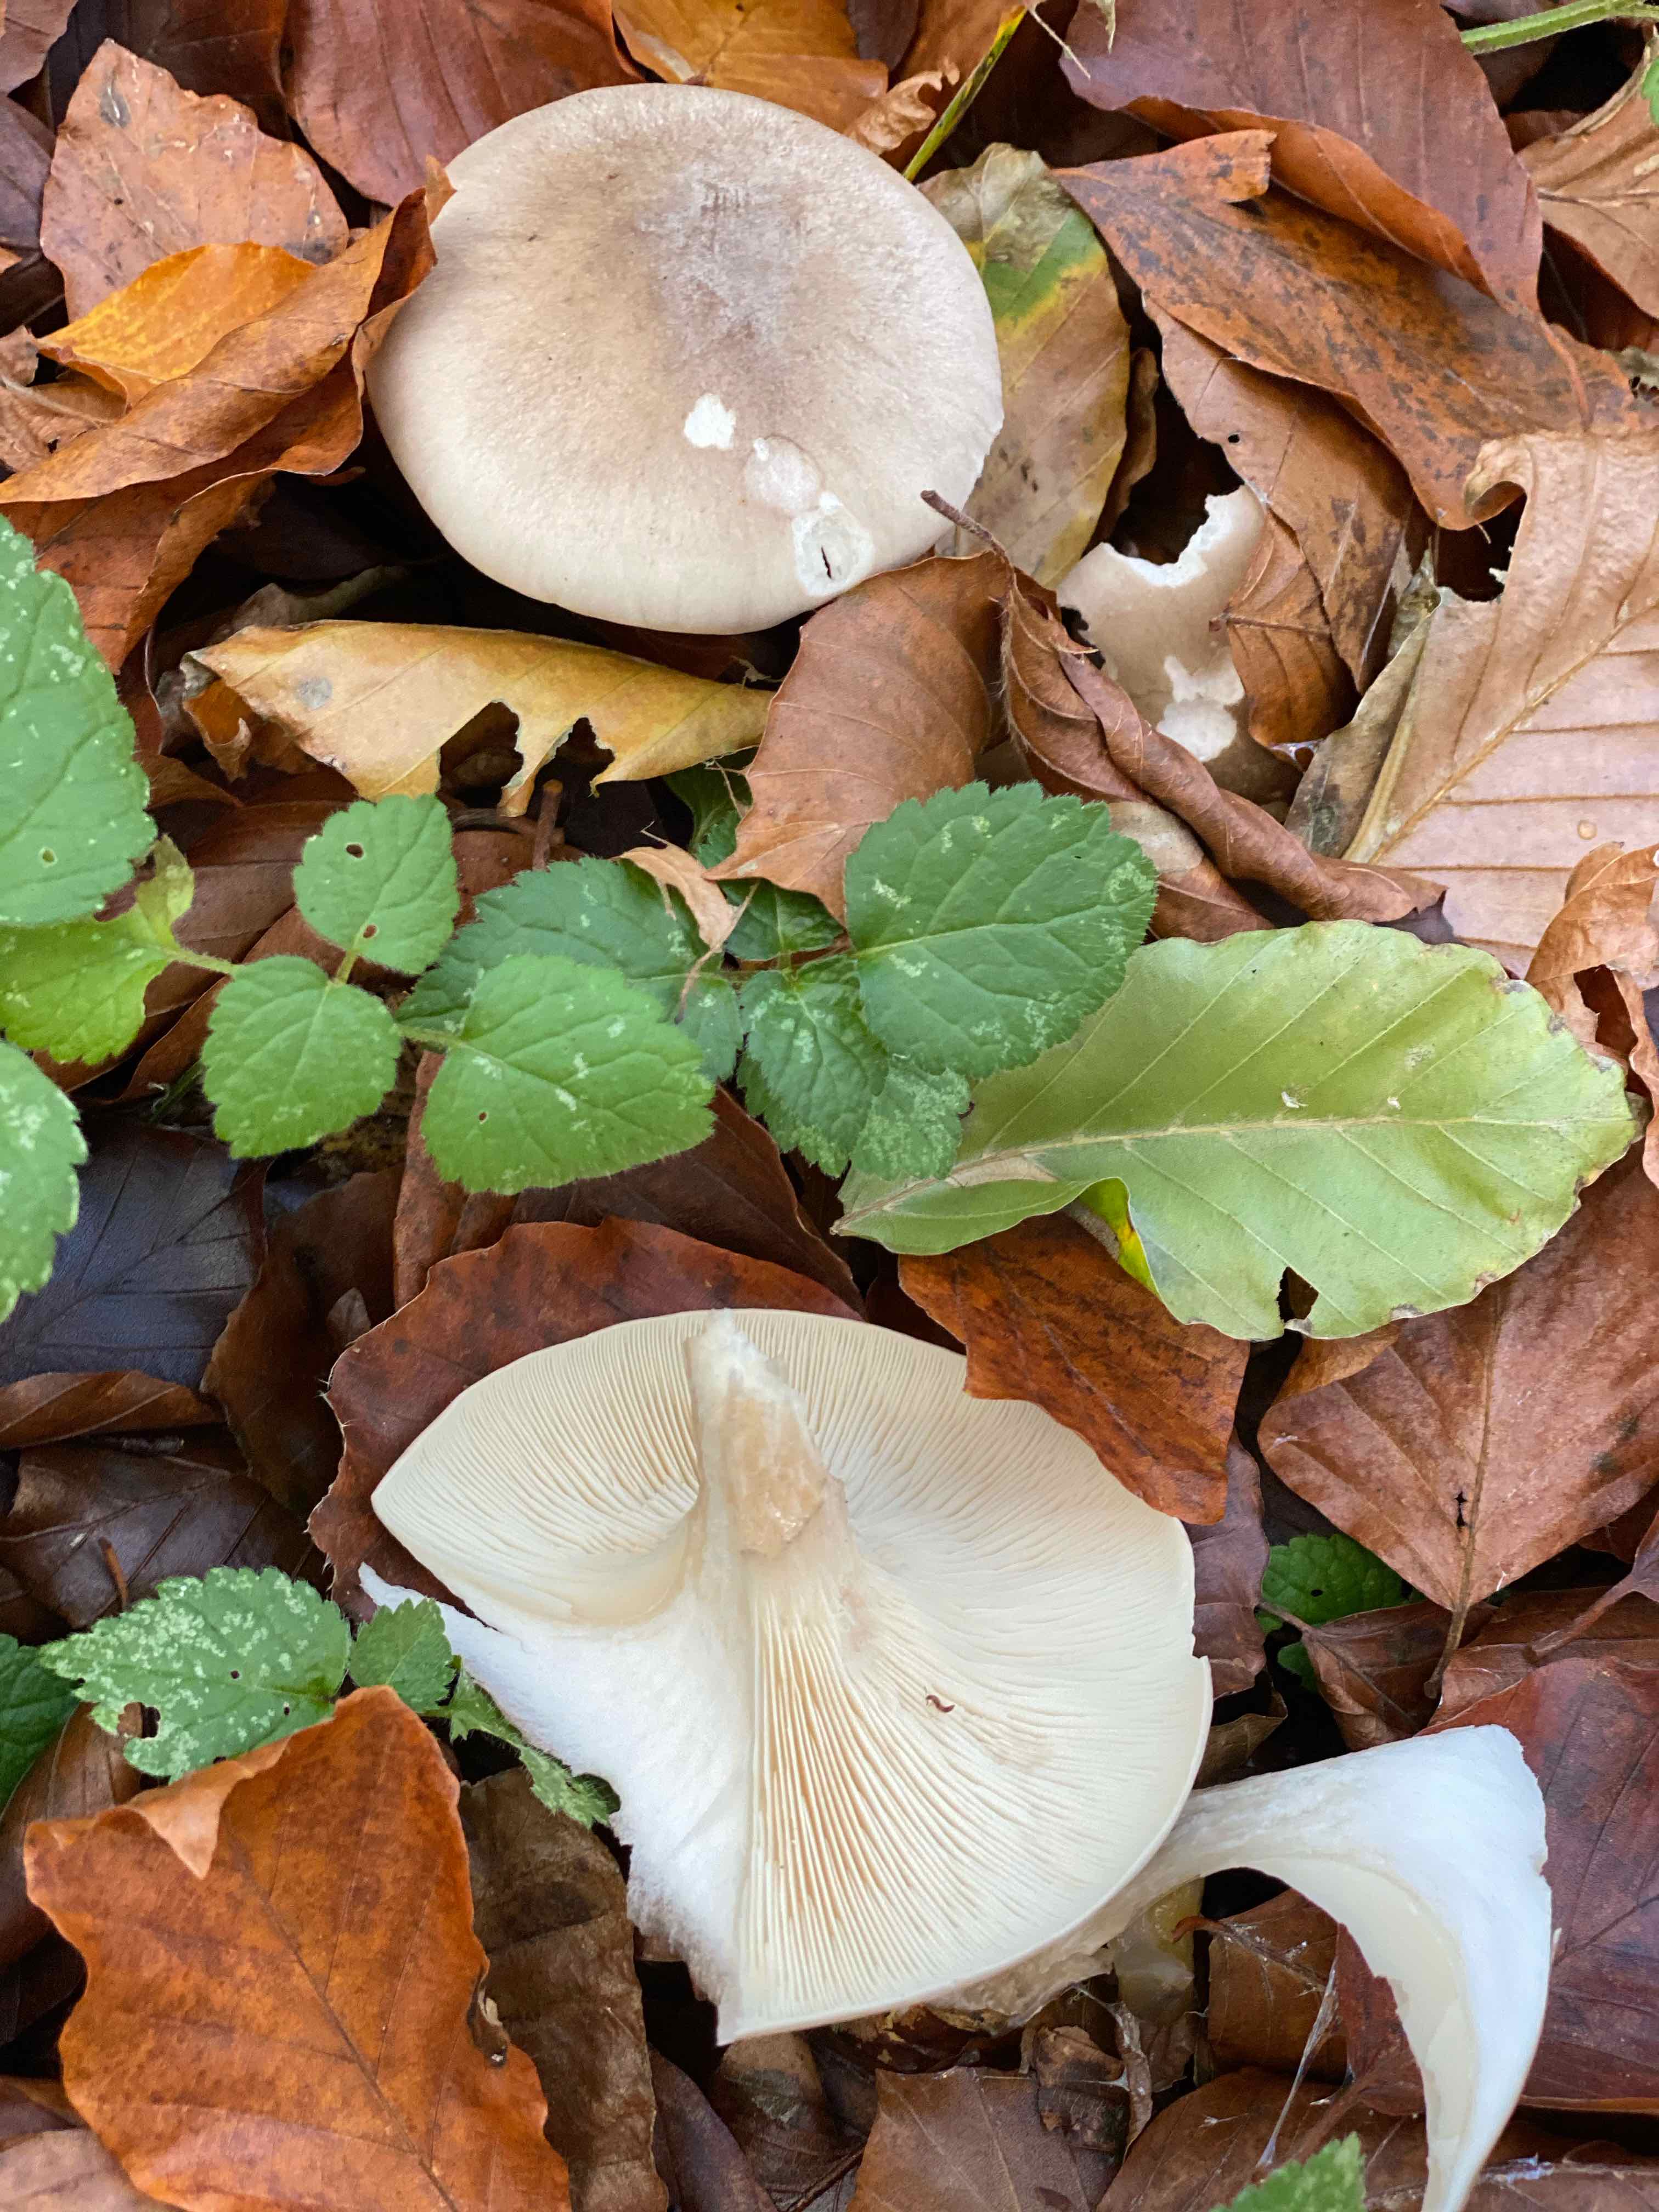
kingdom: Fungi
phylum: Basidiomycota
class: Agaricomycetes
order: Agaricales
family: Tricholomataceae
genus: Clitocybe
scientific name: Clitocybe nebularis
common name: tåge-tragthat
